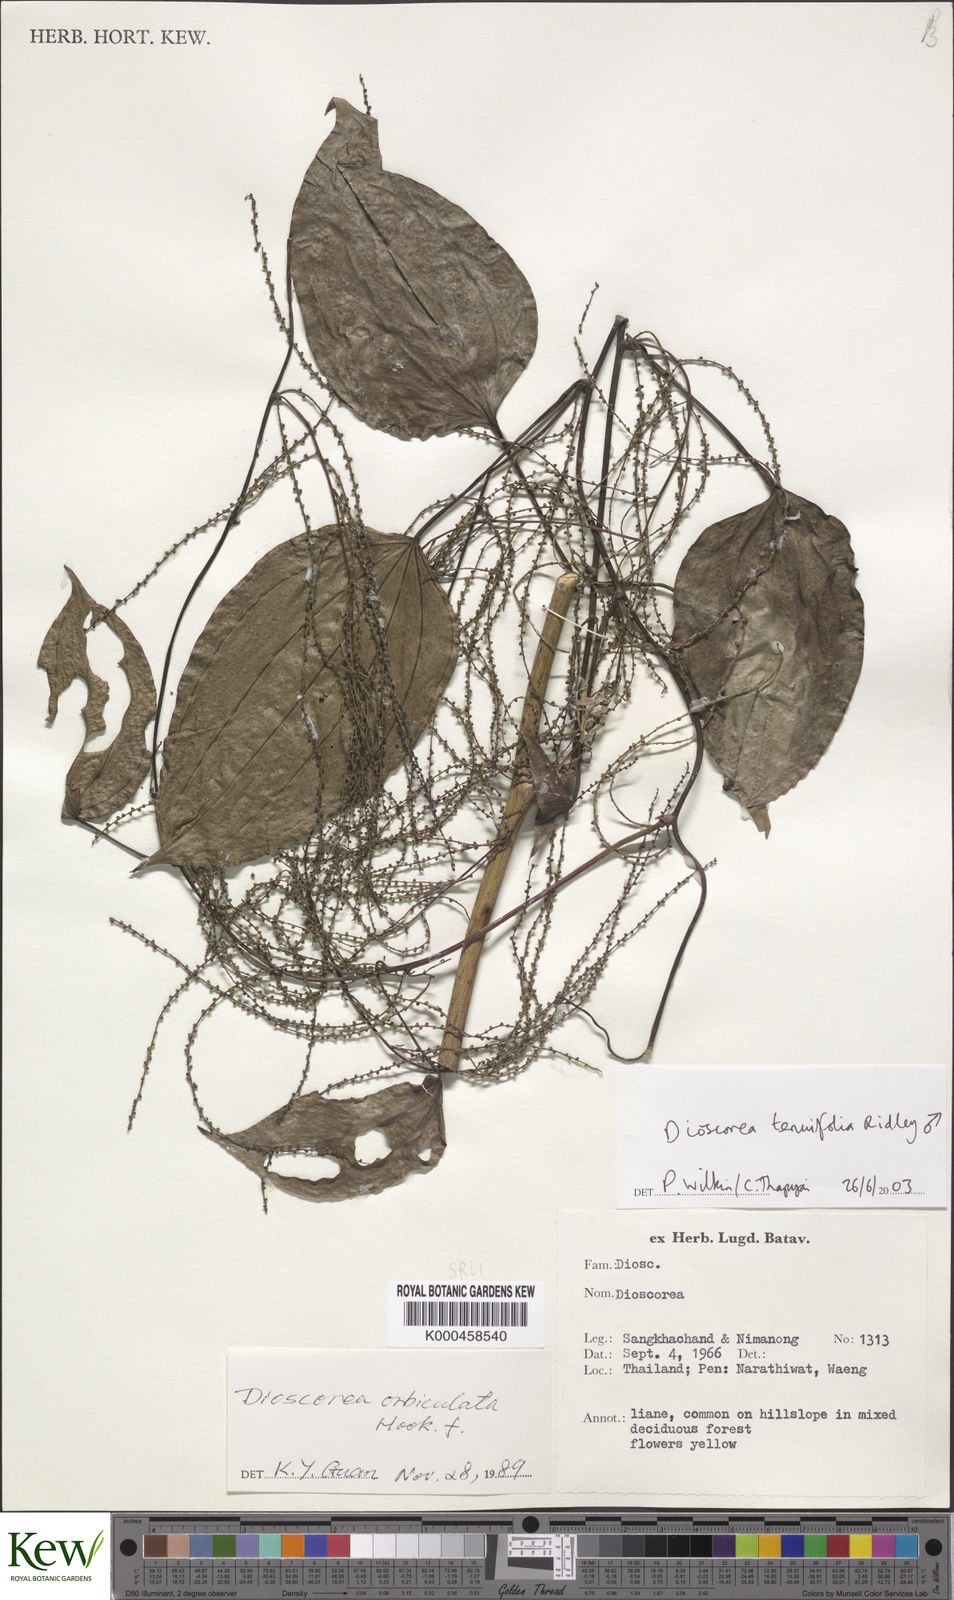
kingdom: Plantae
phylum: Tracheophyta
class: Liliopsida
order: Dioscoreales
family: Dioscoreaceae
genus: Dioscorea
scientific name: Dioscorea tenuifolia
